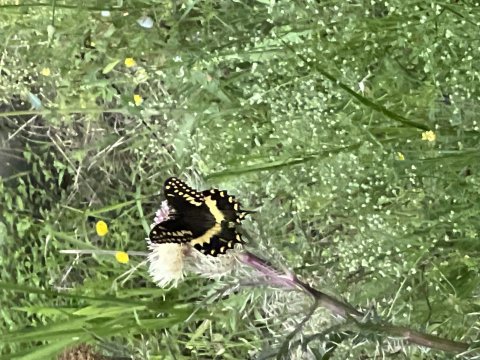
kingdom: Animalia
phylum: Arthropoda
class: Insecta
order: Lepidoptera
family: Papilionidae
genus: Pterourus
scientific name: Pterourus palamedes
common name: Palamedes Swallowtail
